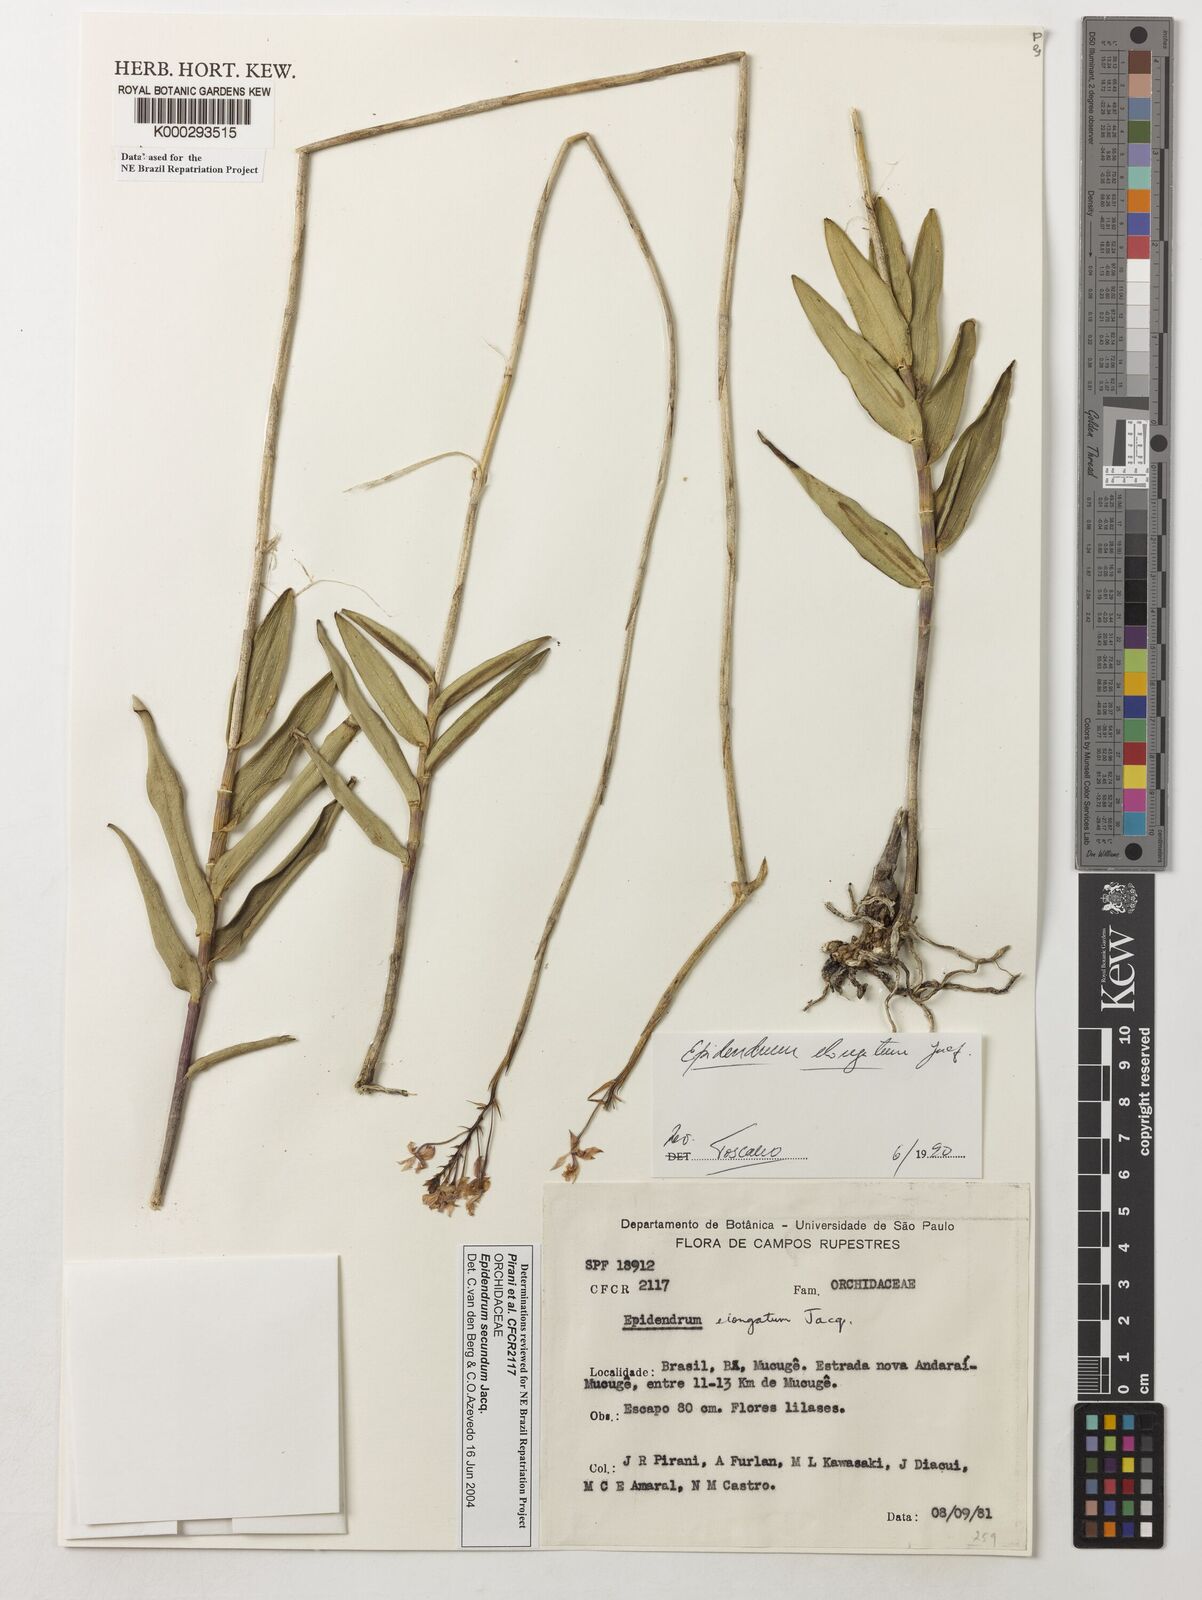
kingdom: Plantae
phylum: Tracheophyta
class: Liliopsida
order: Asparagales
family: Orchidaceae
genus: Epidendrum
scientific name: Epidendrum secundum
